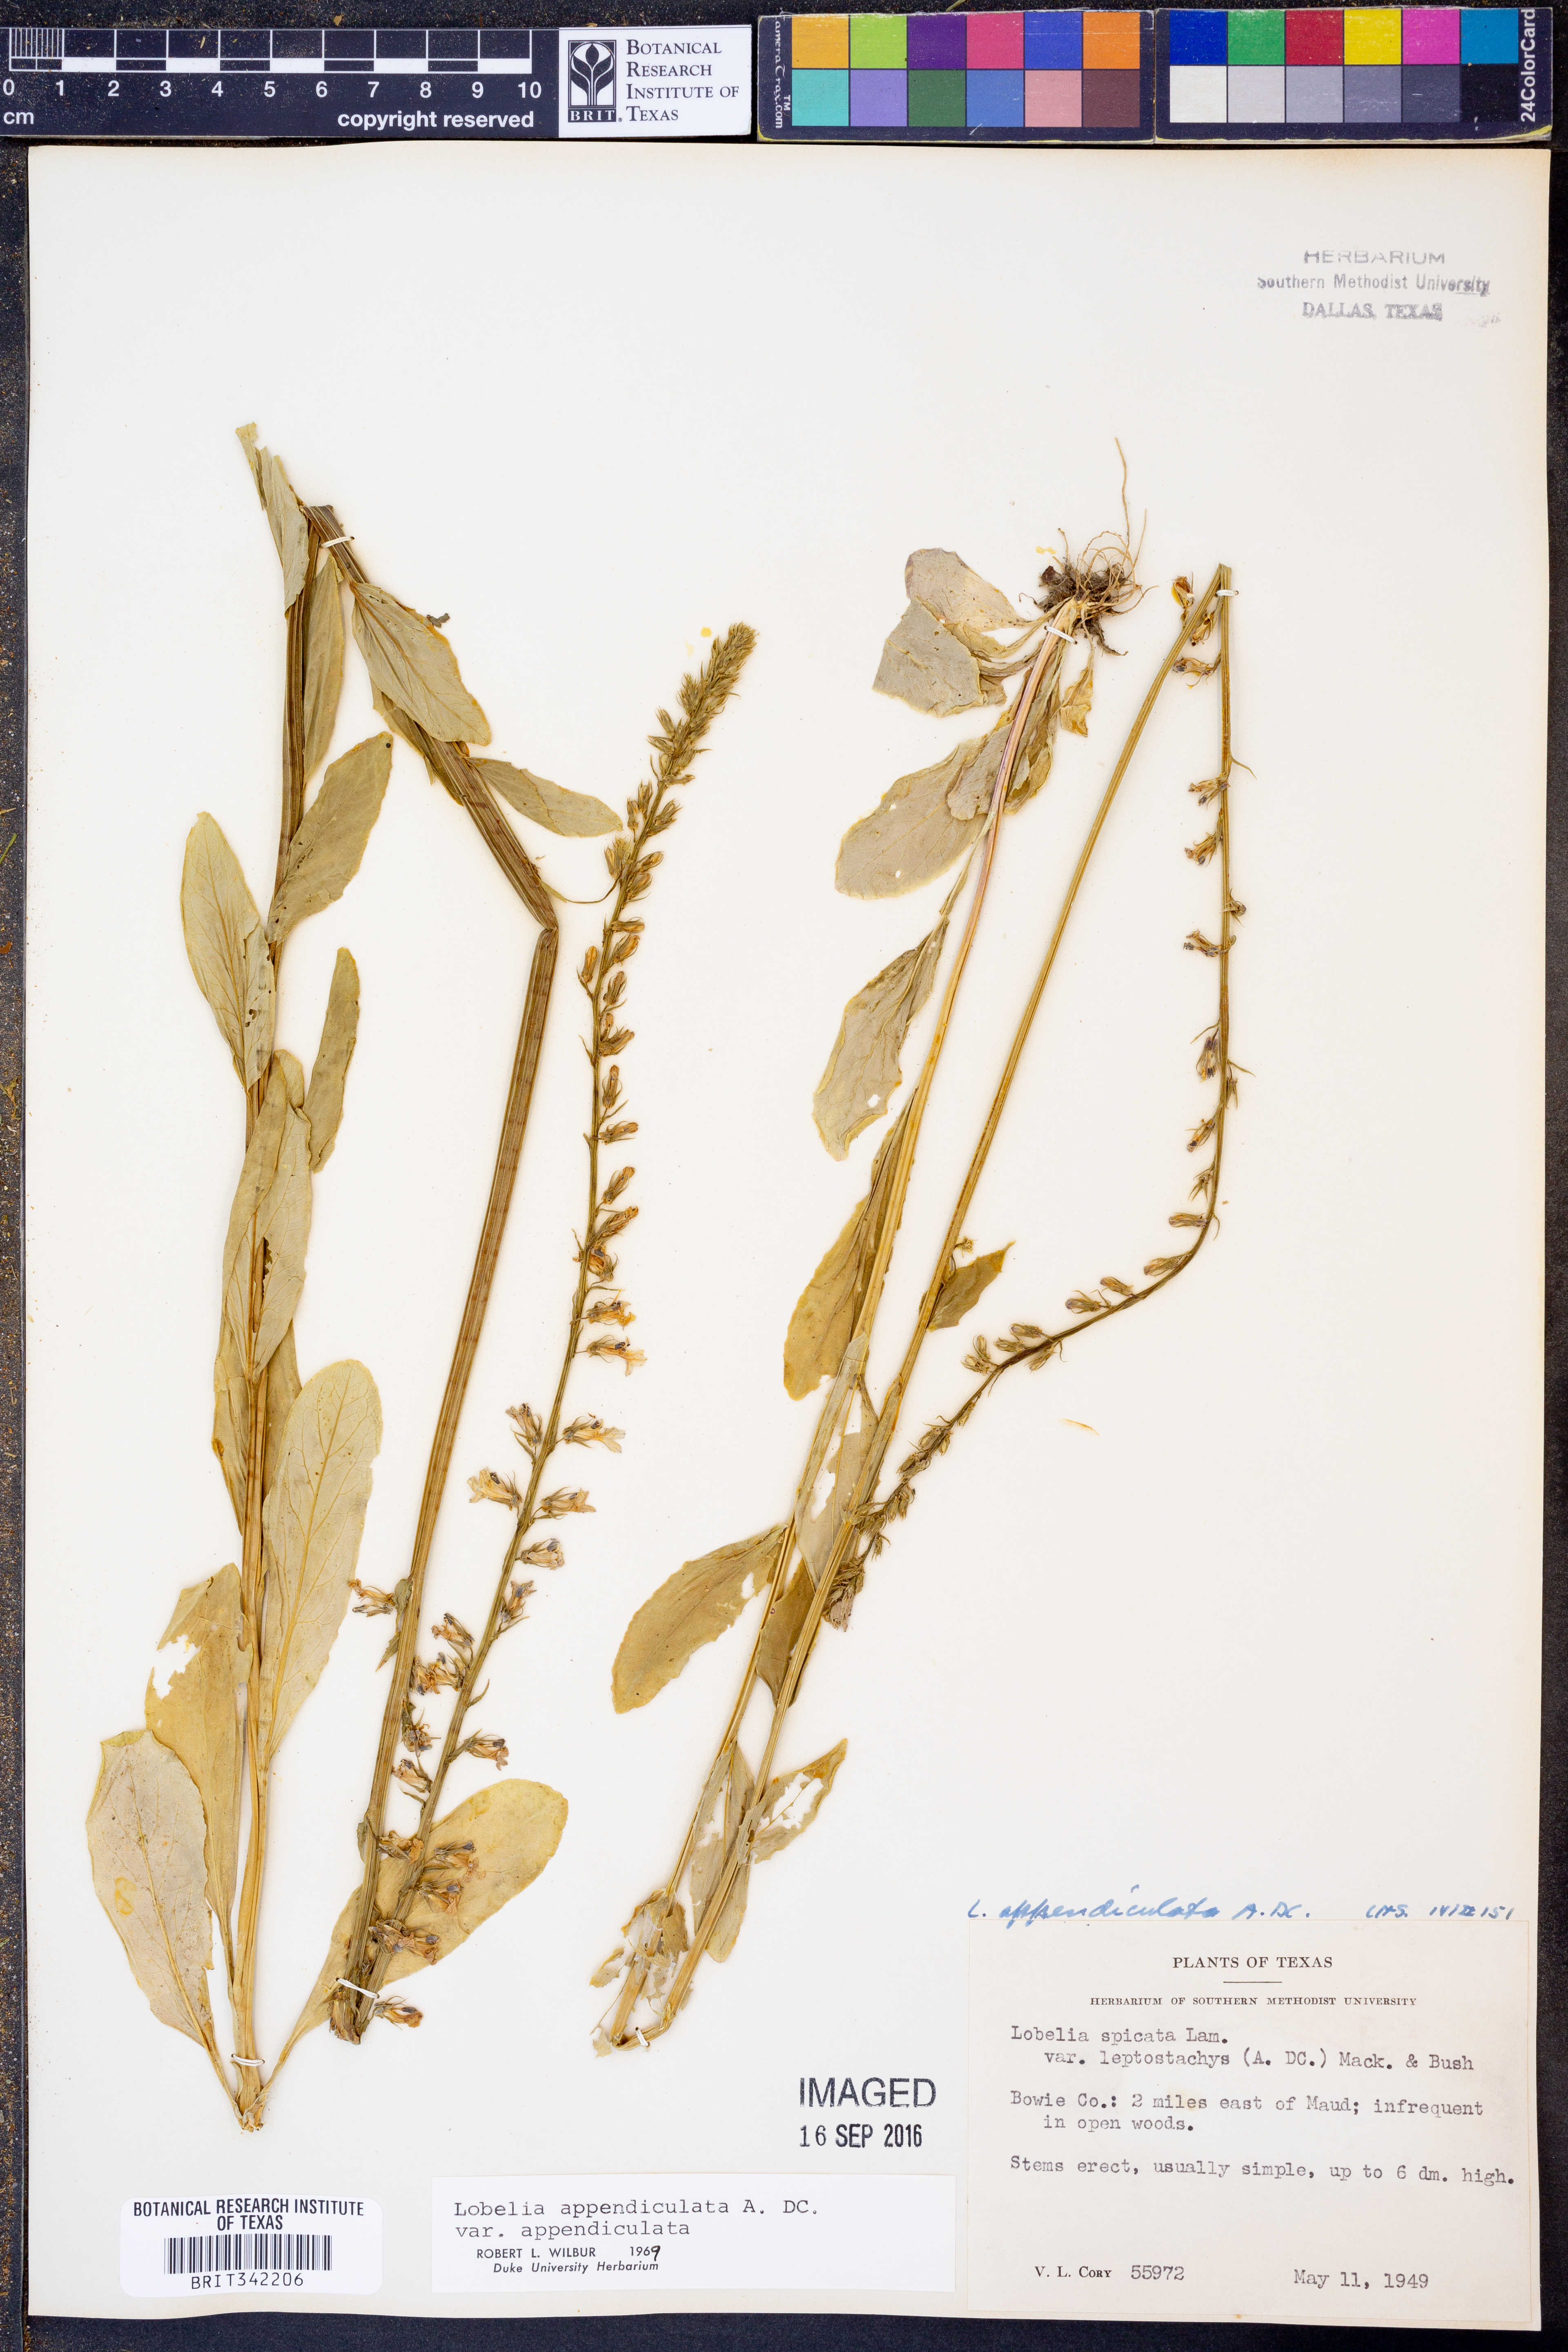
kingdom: Plantae
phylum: Tracheophyta
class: Magnoliopsida
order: Asterales
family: Campanulaceae
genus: Lobelia
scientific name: Lobelia appendiculata
